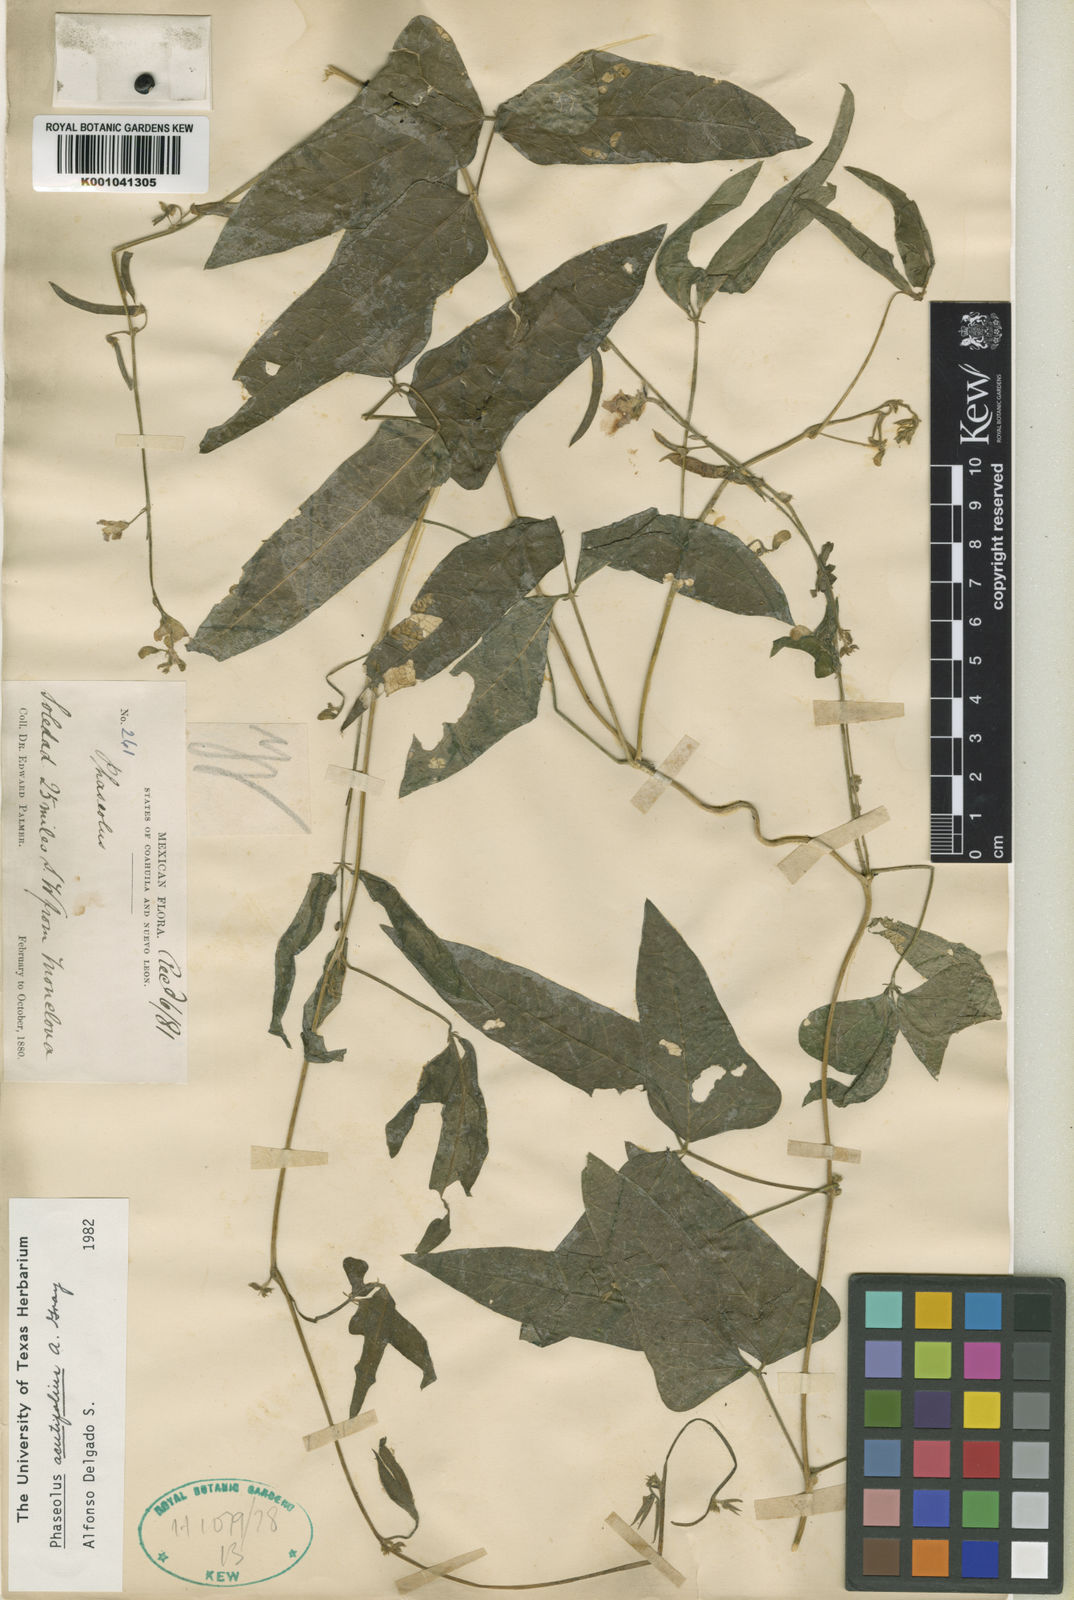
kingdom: Plantae
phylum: Tracheophyta
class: Magnoliopsida
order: Fabales
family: Fabaceae
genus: Phaseolus
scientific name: Phaseolus acutifolius
